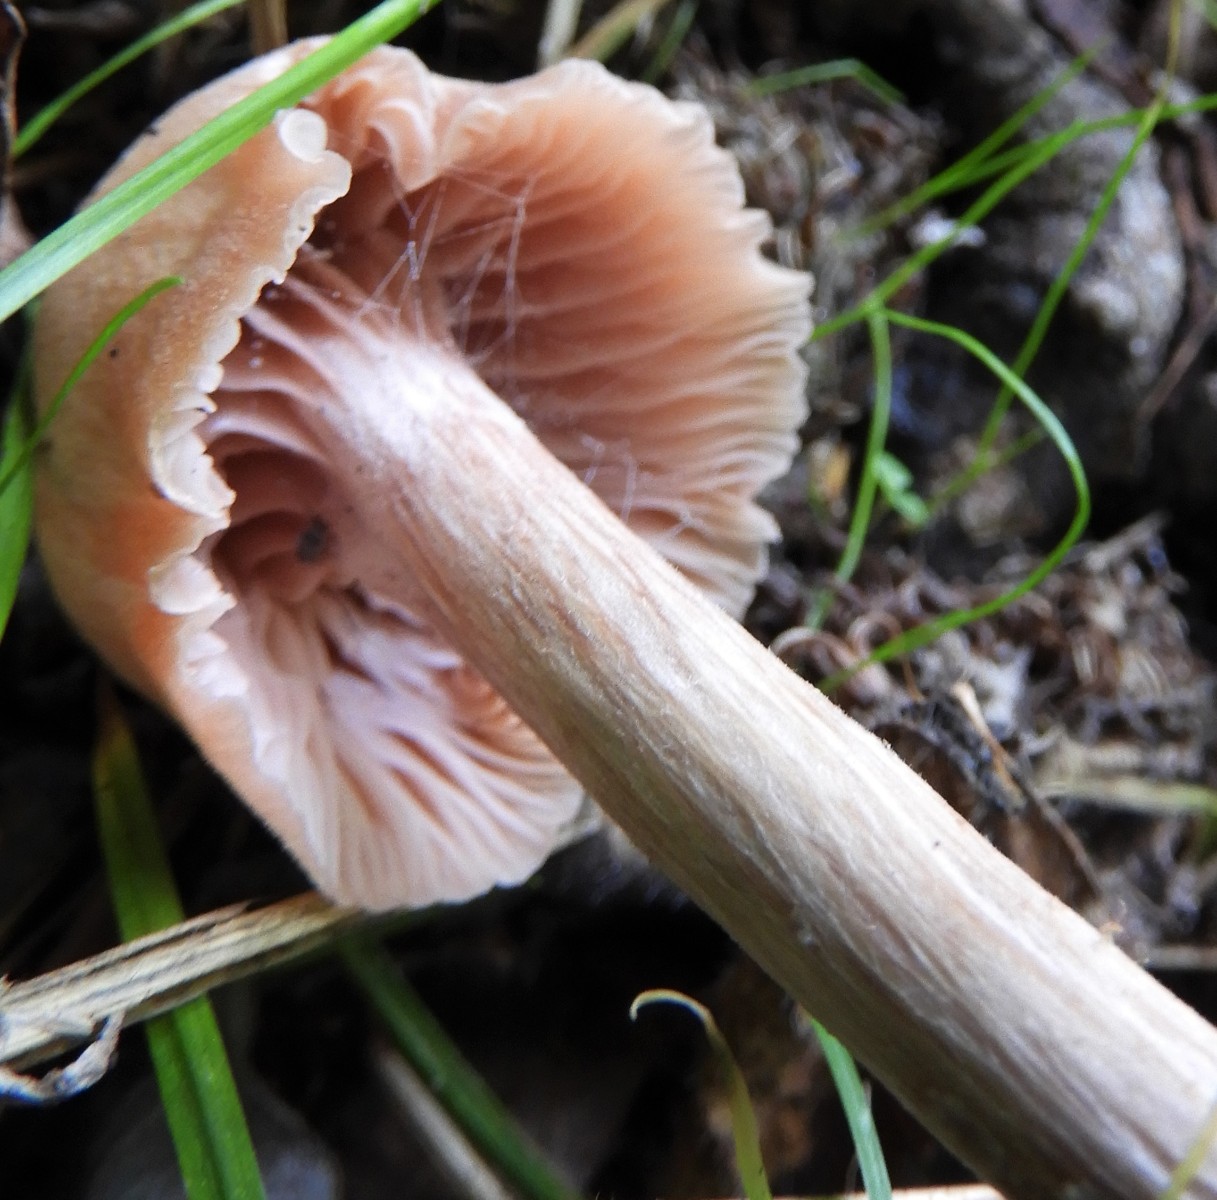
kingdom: Fungi
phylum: Basidiomycota
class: Agaricomycetes
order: Agaricales
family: Hydnangiaceae
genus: Laccaria
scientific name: Laccaria
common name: ametysthat
